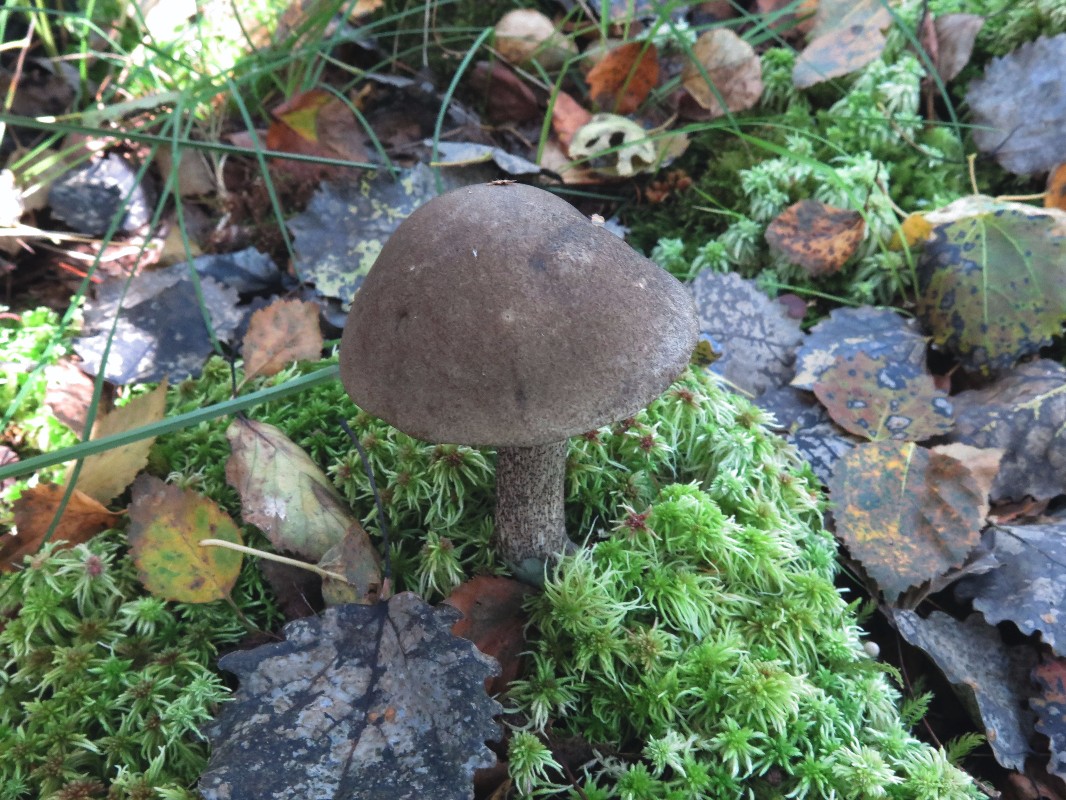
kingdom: Fungi
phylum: Basidiomycota
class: Agaricomycetes
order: Boletales
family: Boletaceae
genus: Leccinum
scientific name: Leccinum variicolor
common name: flammet skælrørhat
